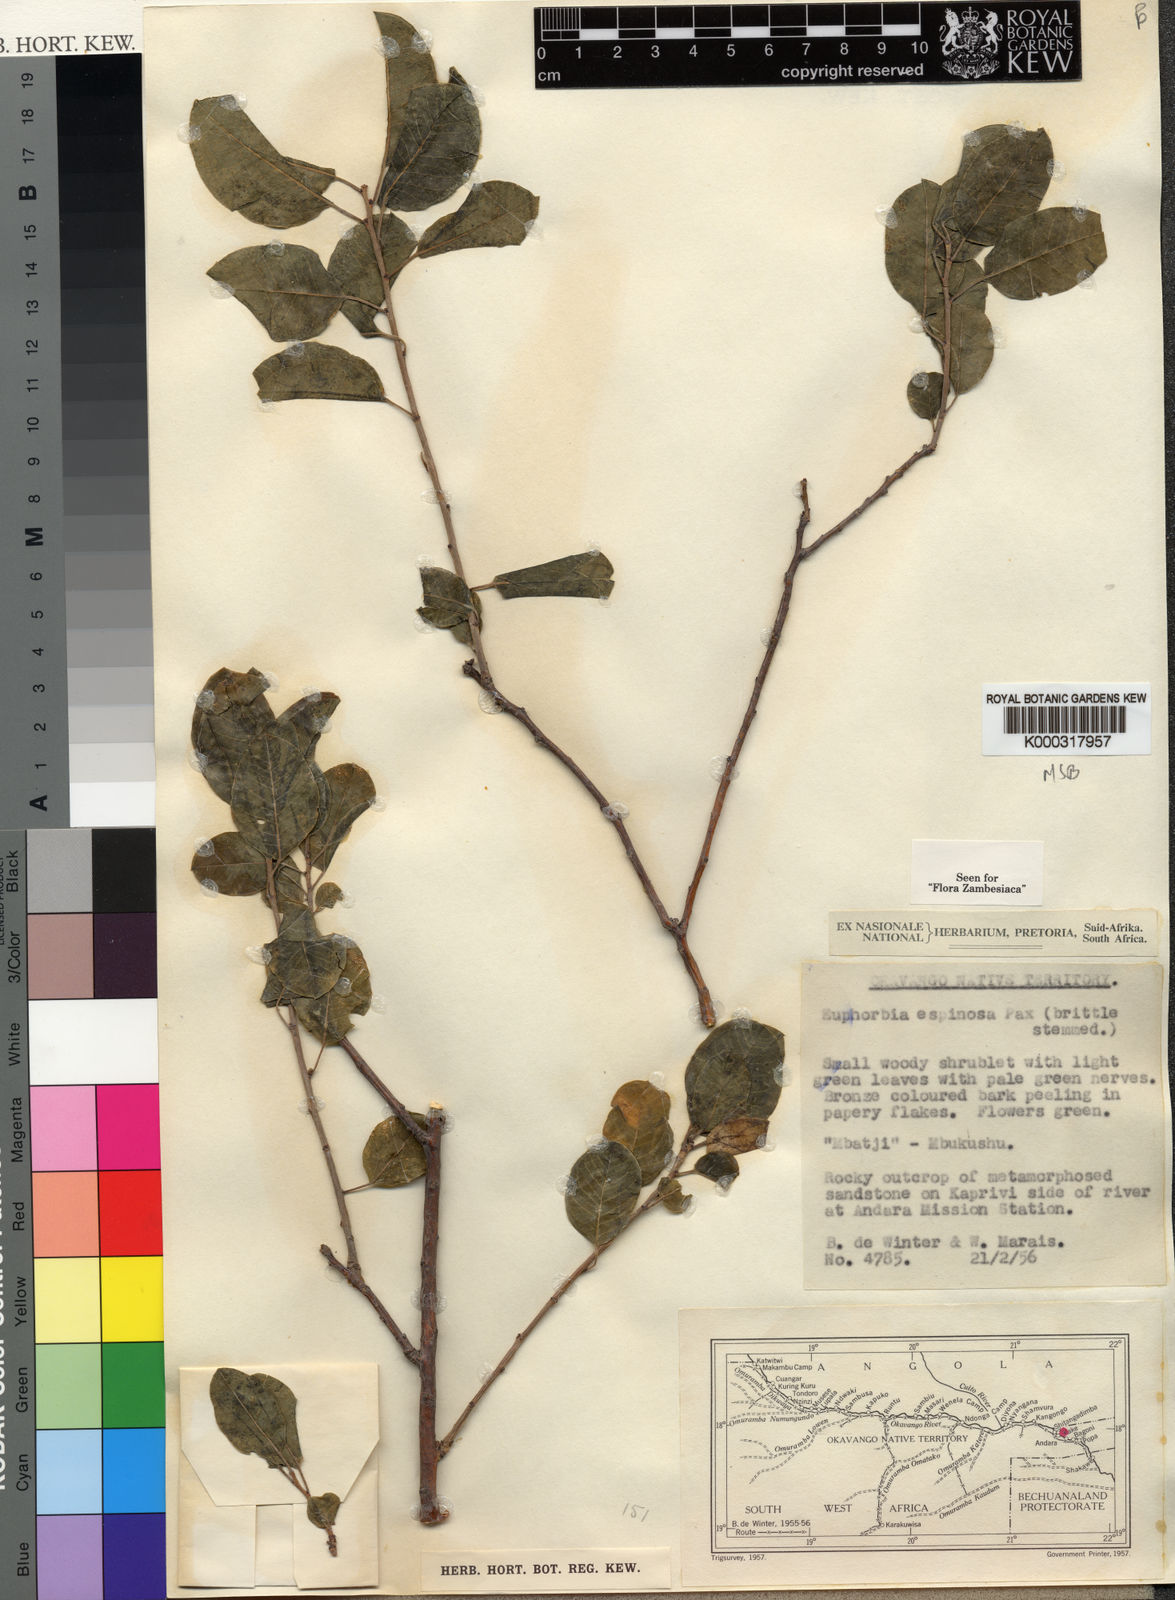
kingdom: Plantae
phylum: Tracheophyta
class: Magnoliopsida
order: Malpighiales
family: Euphorbiaceae
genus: Euphorbia
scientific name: Euphorbia espinosa
